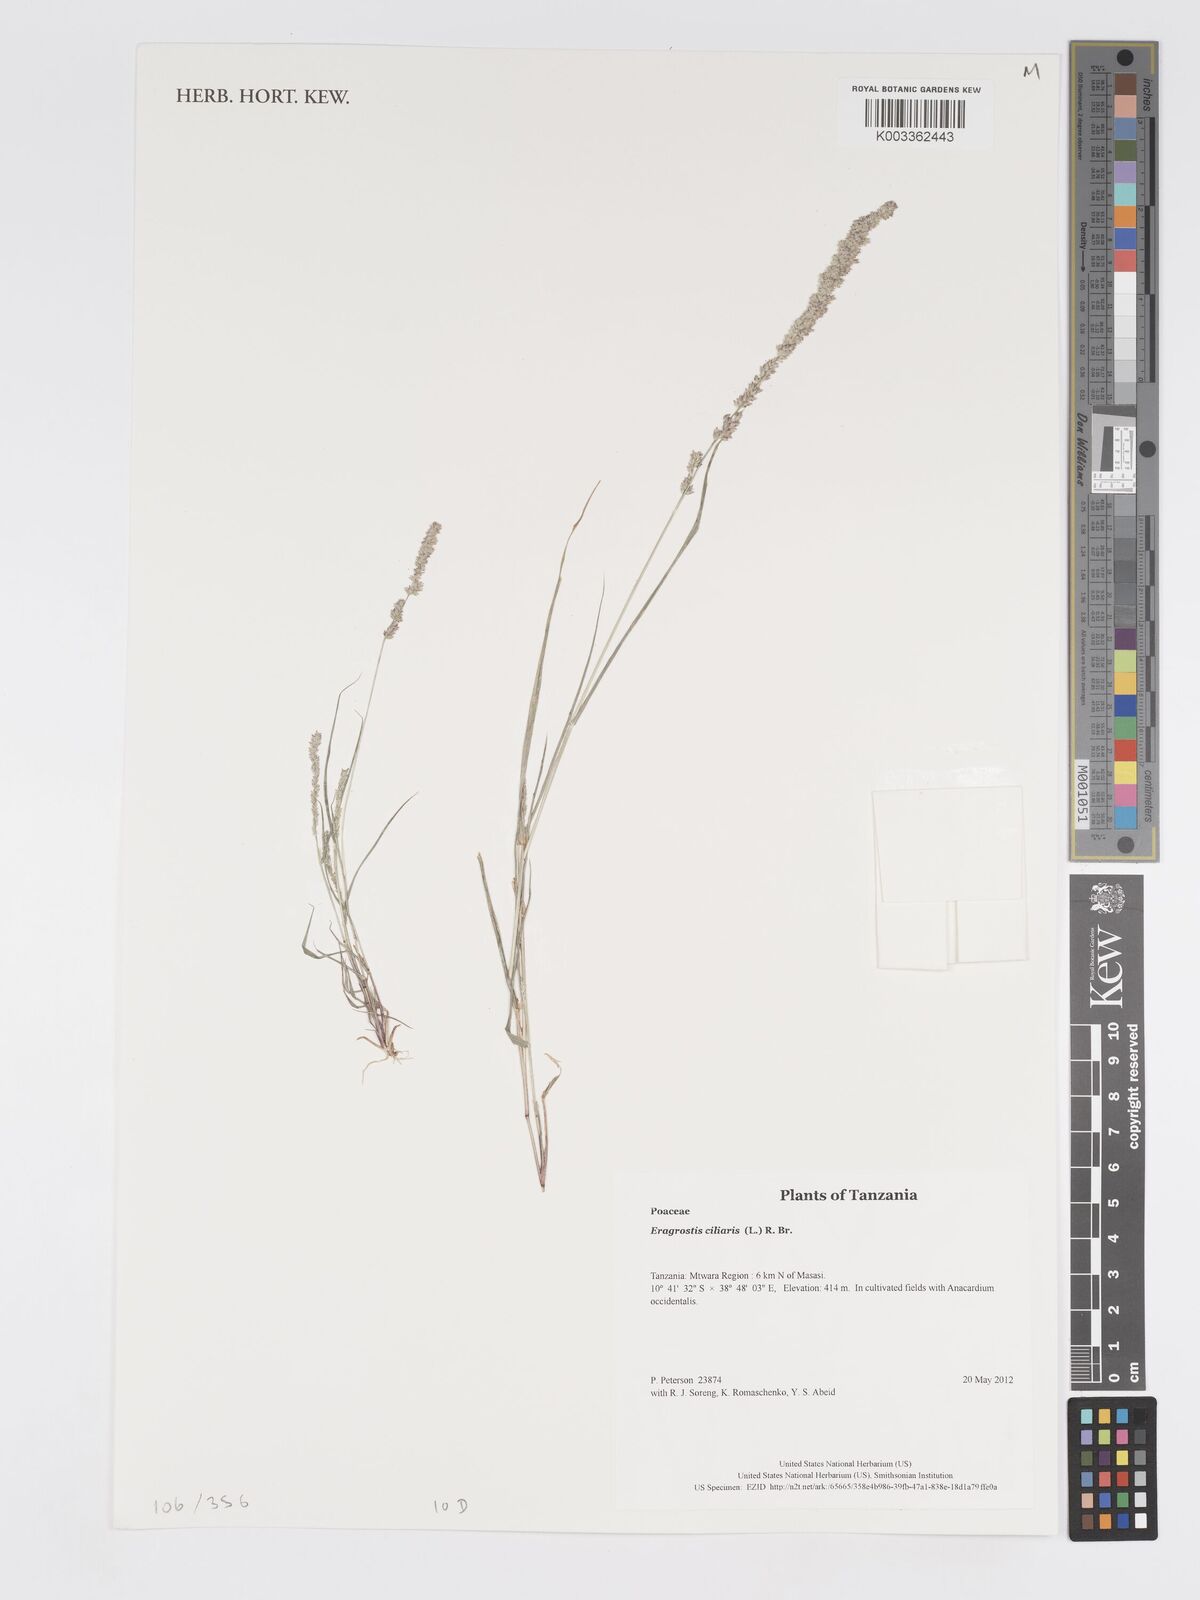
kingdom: Plantae
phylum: Tracheophyta
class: Liliopsida
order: Poales
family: Poaceae
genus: Eragrostis
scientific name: Eragrostis ciliaris
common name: Gophertail lovegrass
